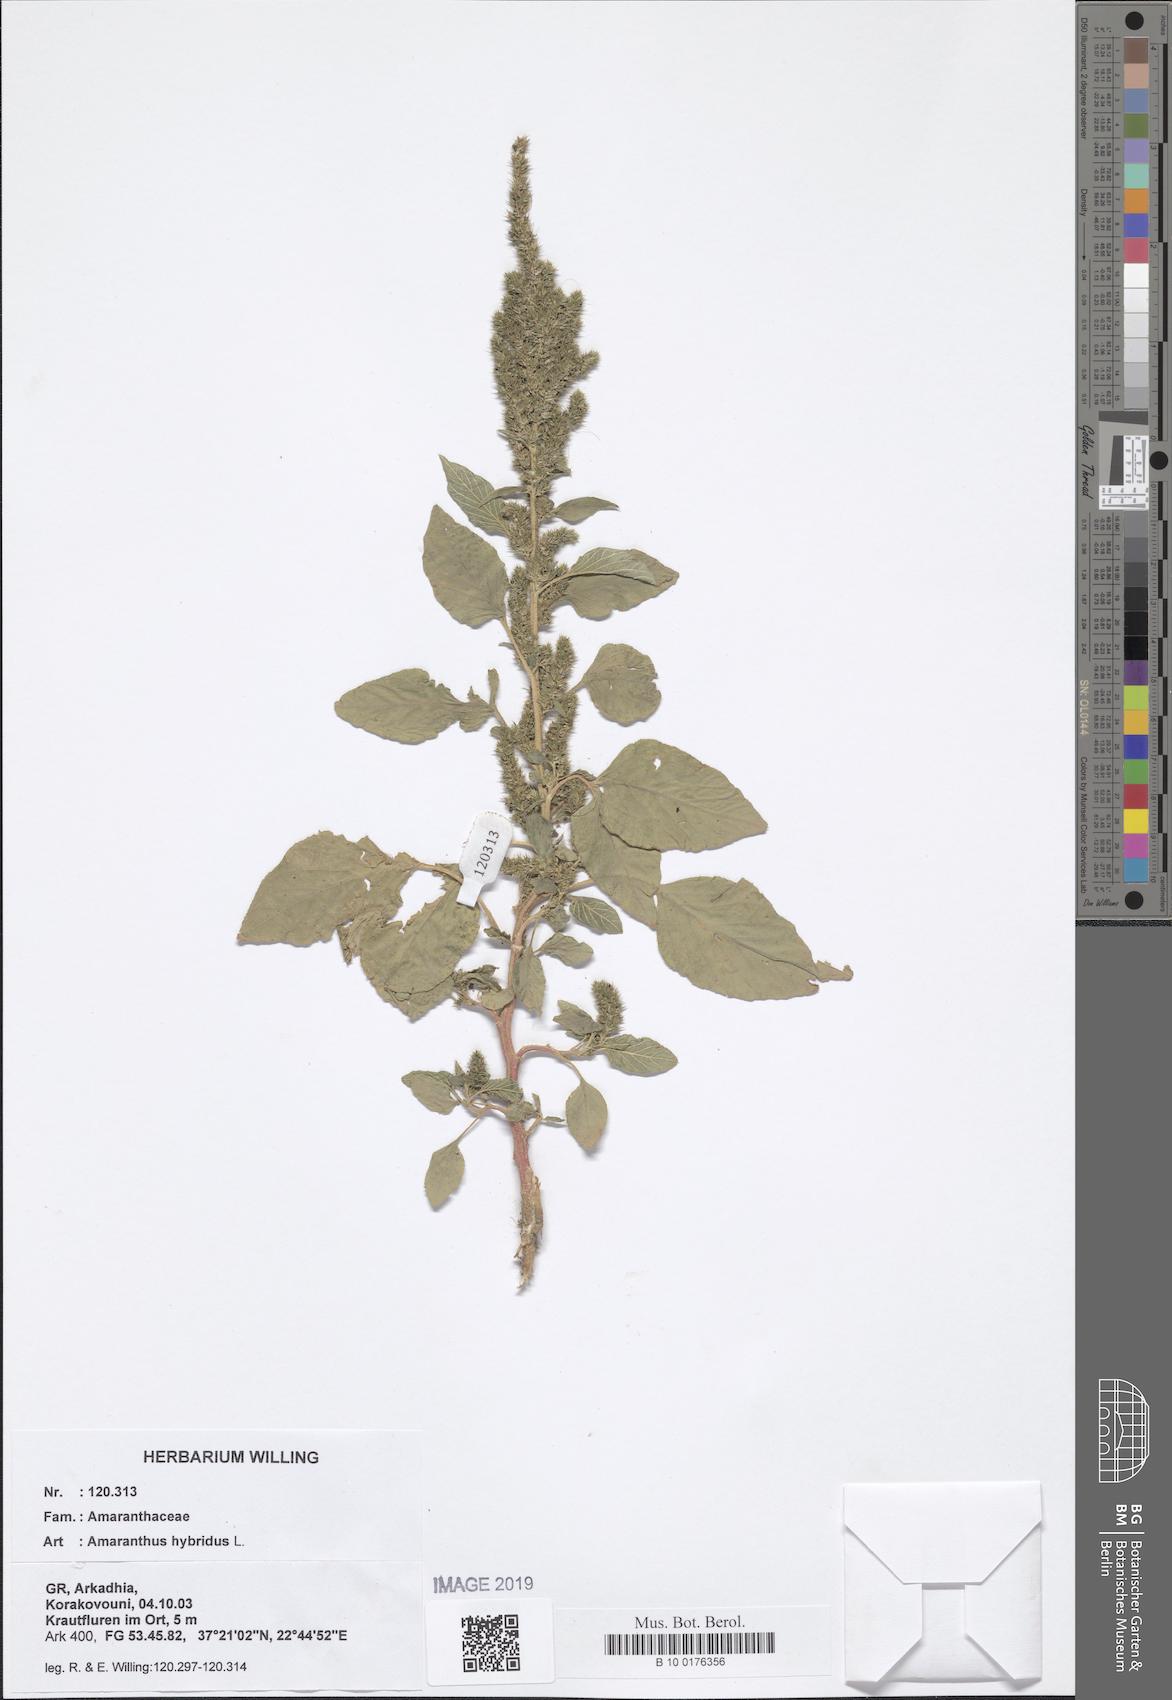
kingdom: Plantae
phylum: Tracheophyta
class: Magnoliopsida
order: Caryophyllales
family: Amaranthaceae
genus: Amaranthus
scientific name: Amaranthus hybridus
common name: Green amaranth
